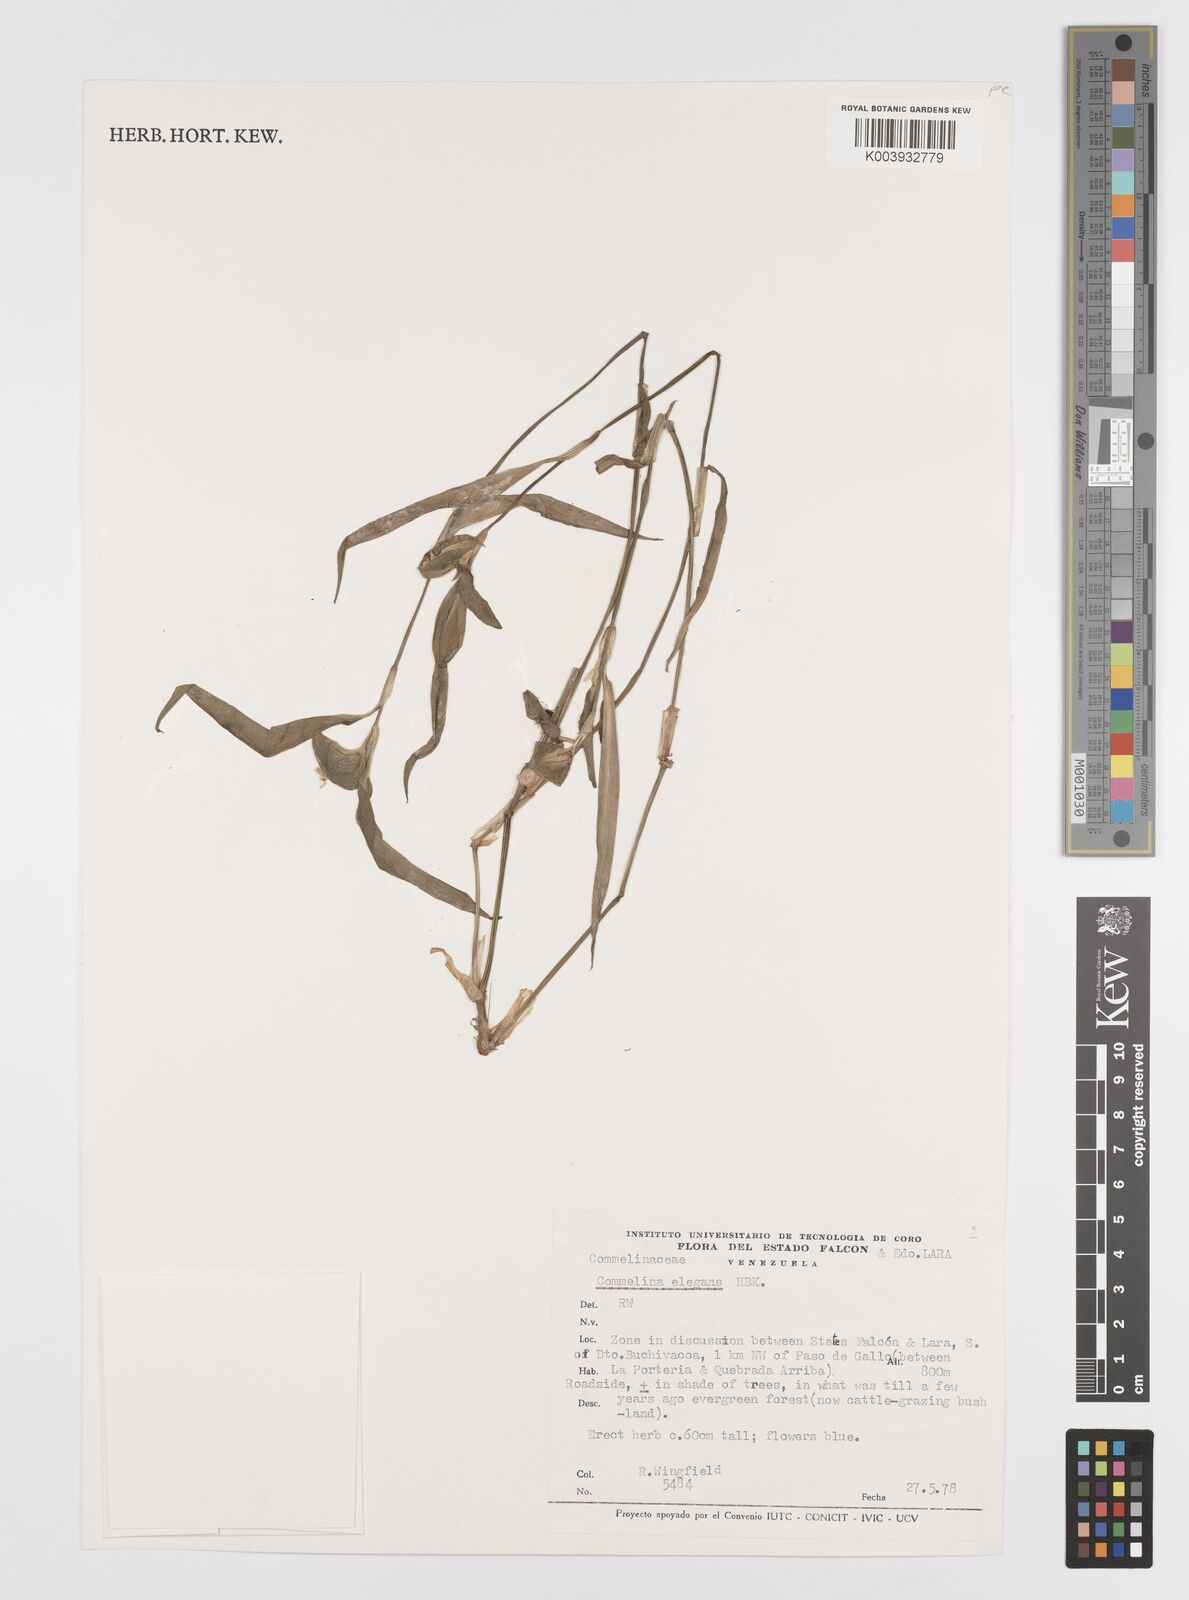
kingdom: Plantae
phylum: Tracheophyta
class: Liliopsida
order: Commelinales
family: Commelinaceae
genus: Commelina
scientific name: Commelina virginica
